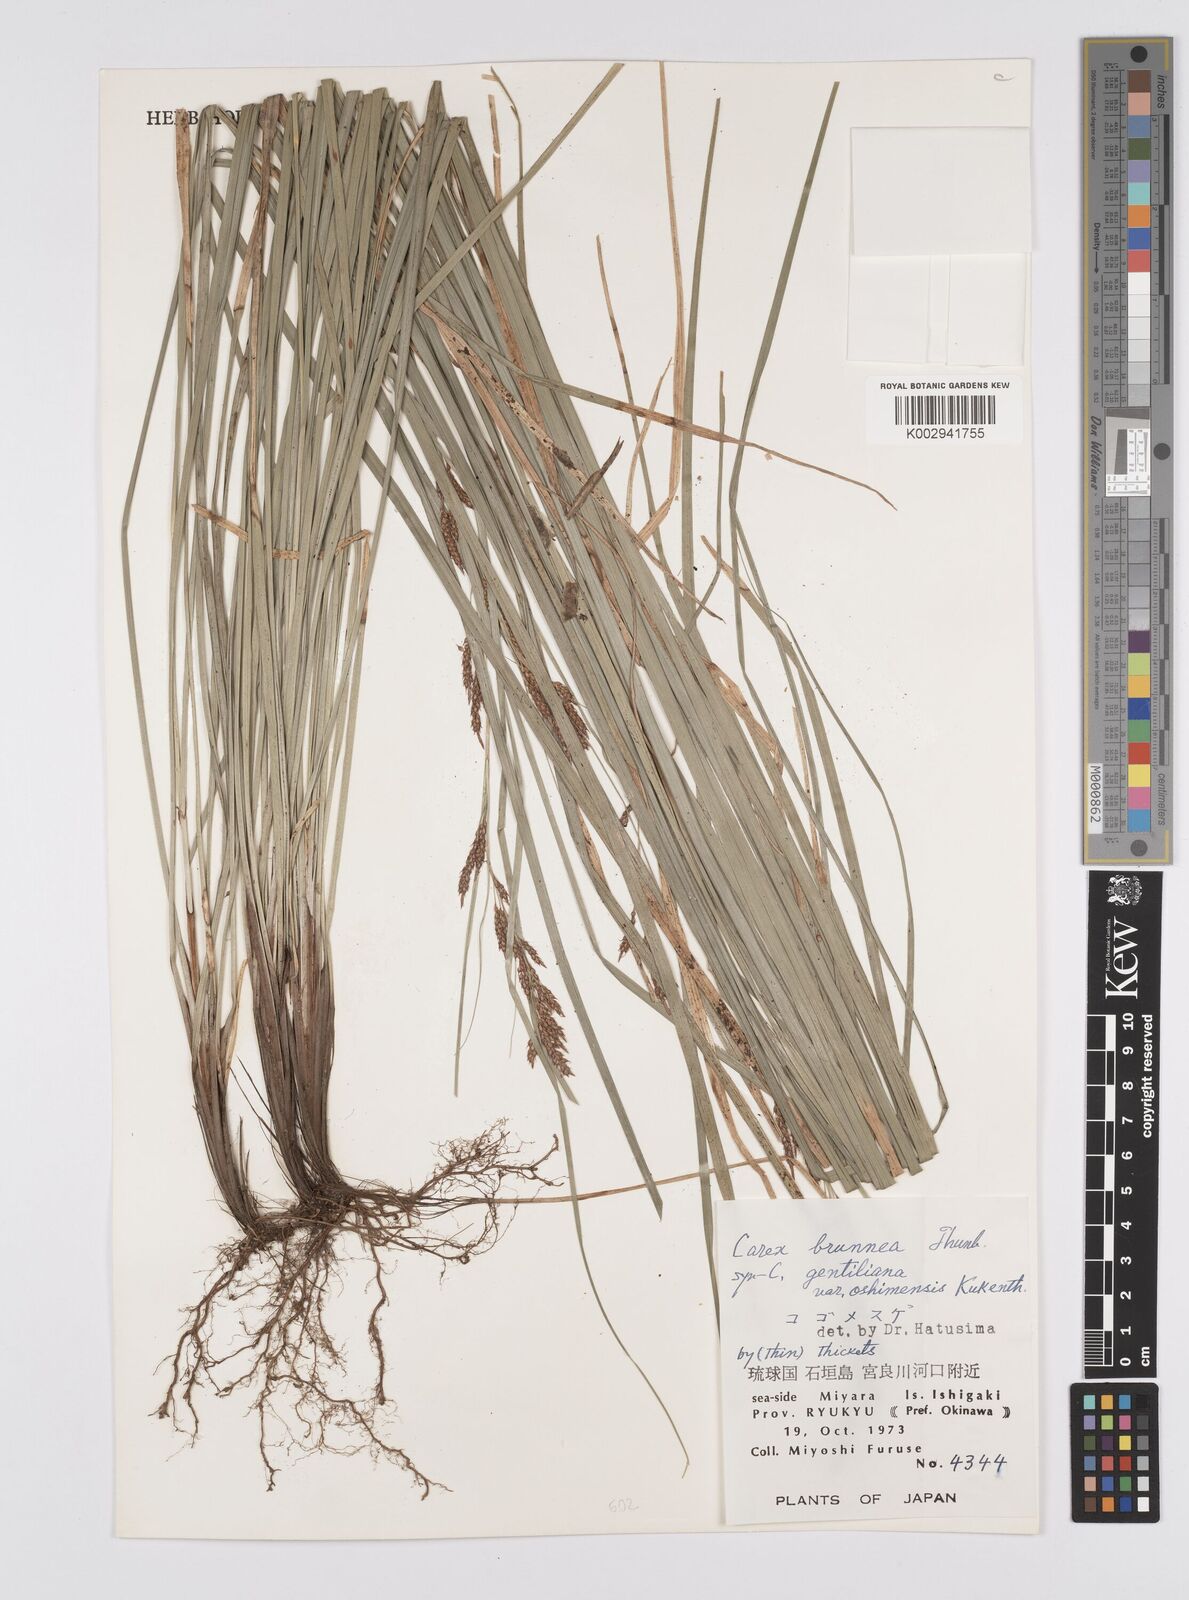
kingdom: Plantae
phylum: Tracheophyta
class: Liliopsida
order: Poales
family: Cyperaceae
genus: Carex
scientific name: Carex brunnea
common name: Greater brown sedge
